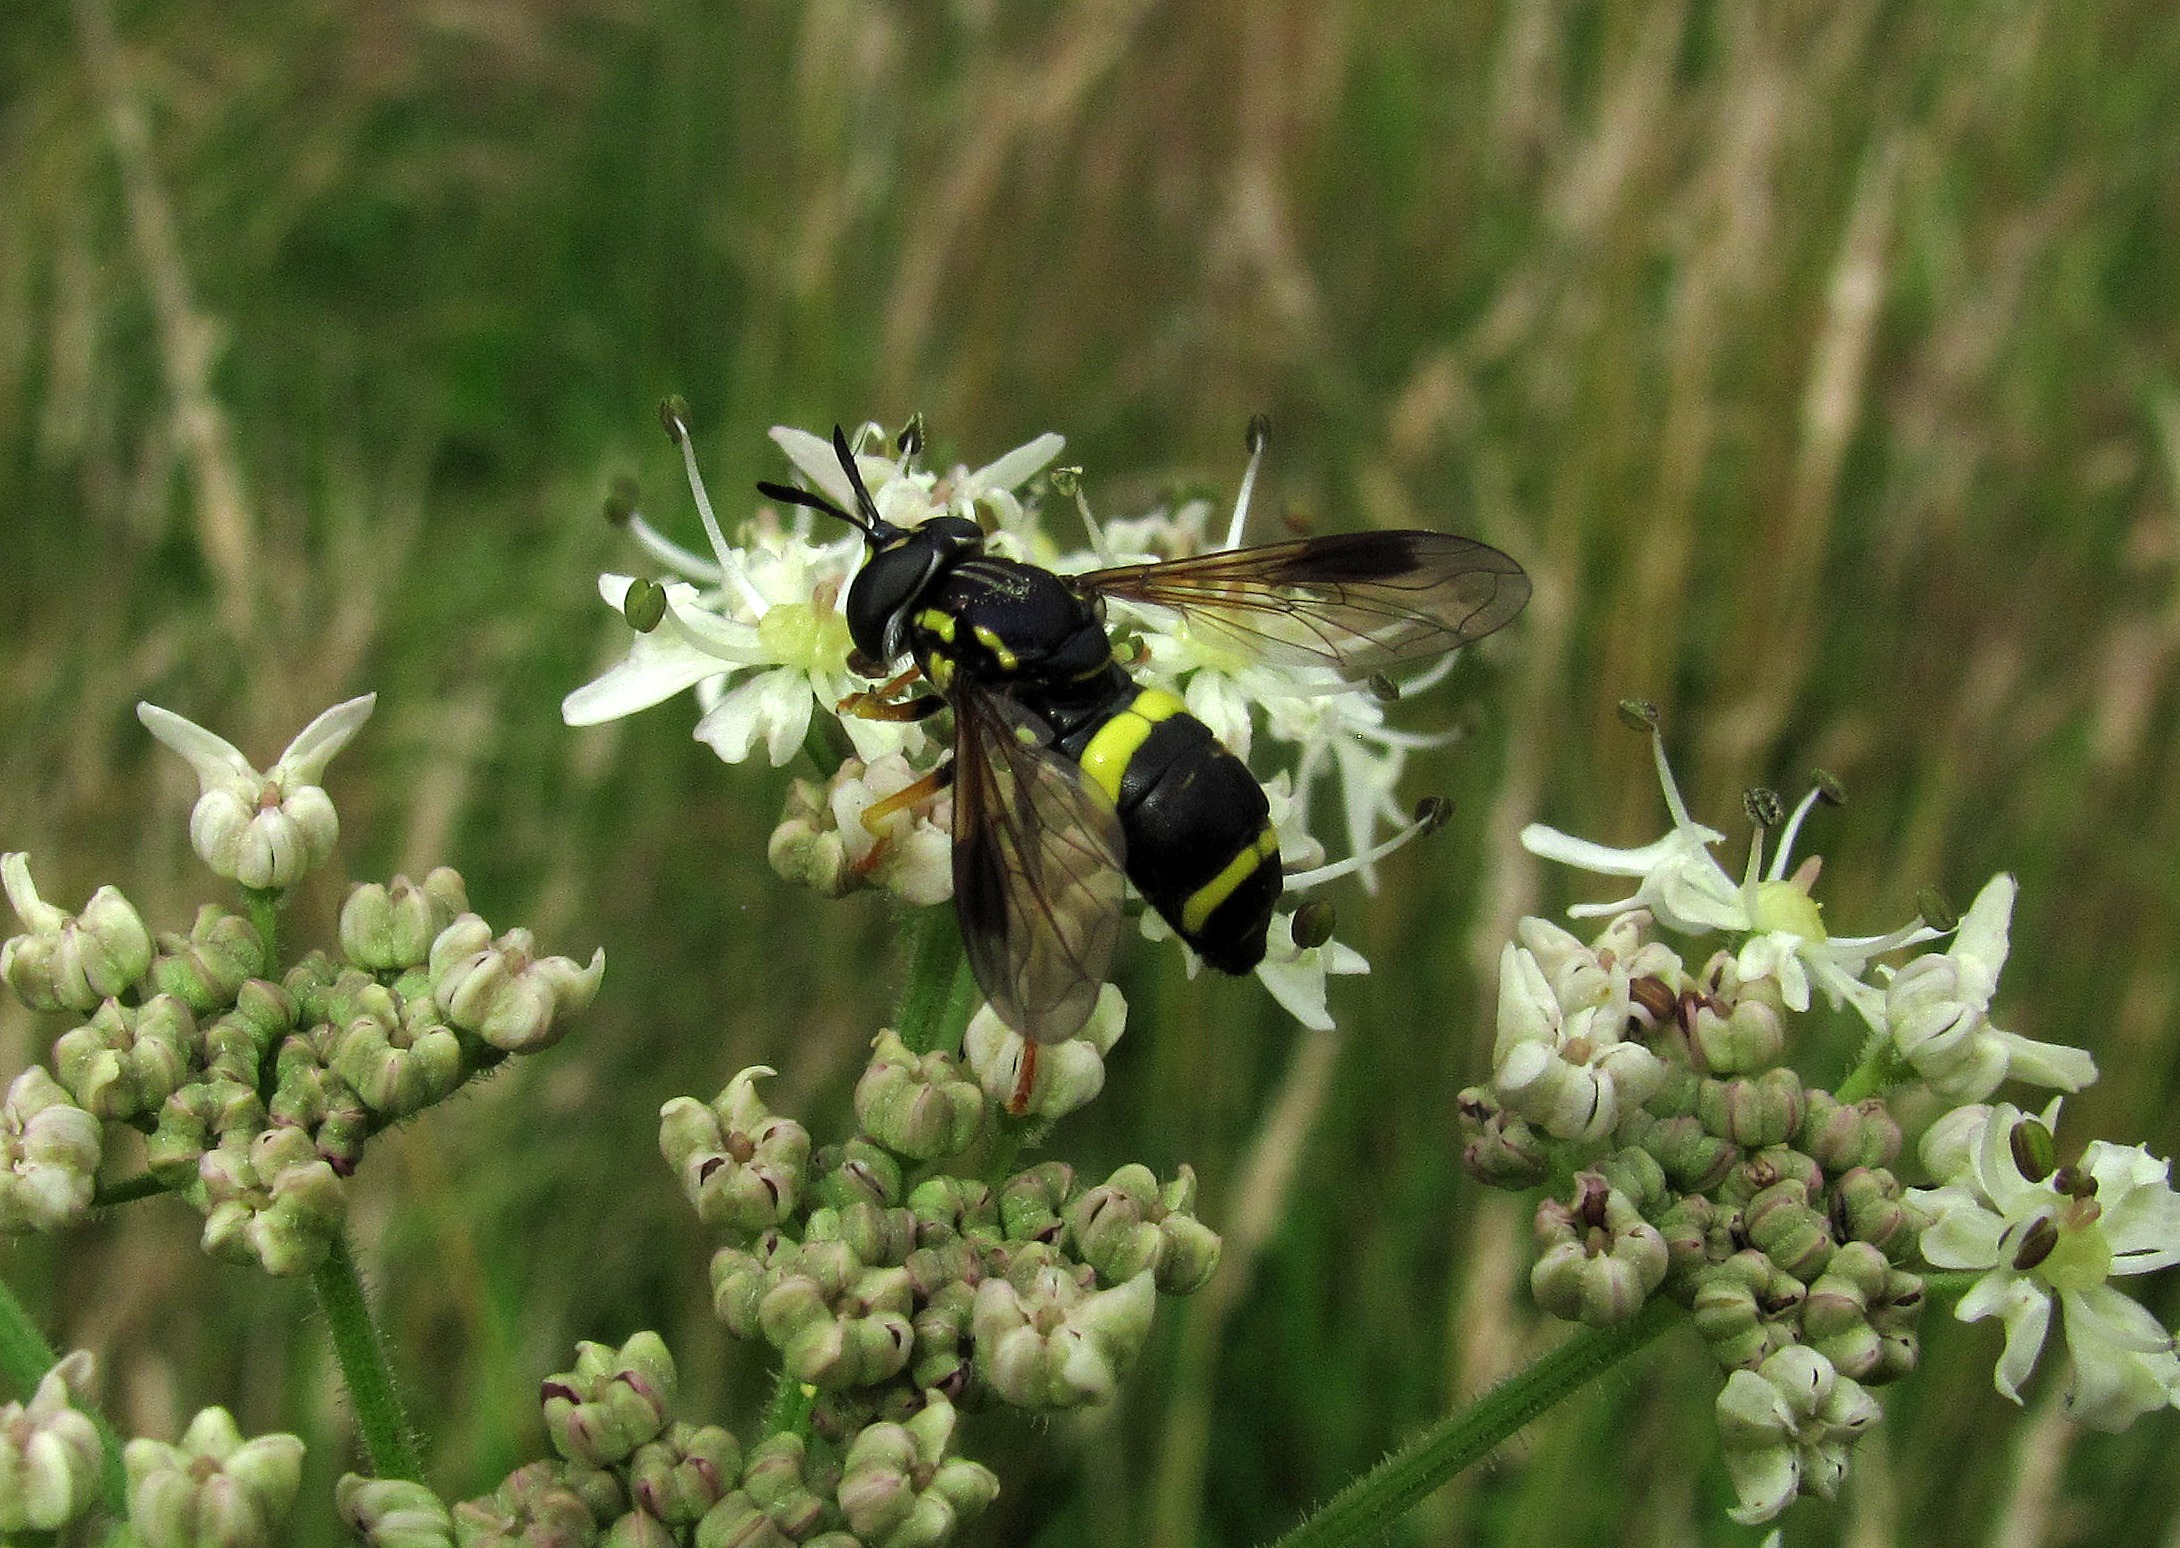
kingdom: Animalia
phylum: Arthropoda
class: Insecta
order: Diptera
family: Syrphidae
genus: Chrysotoxum
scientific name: Chrysotoxum bicincta
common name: Tobåndet hvepsesvirreflue
